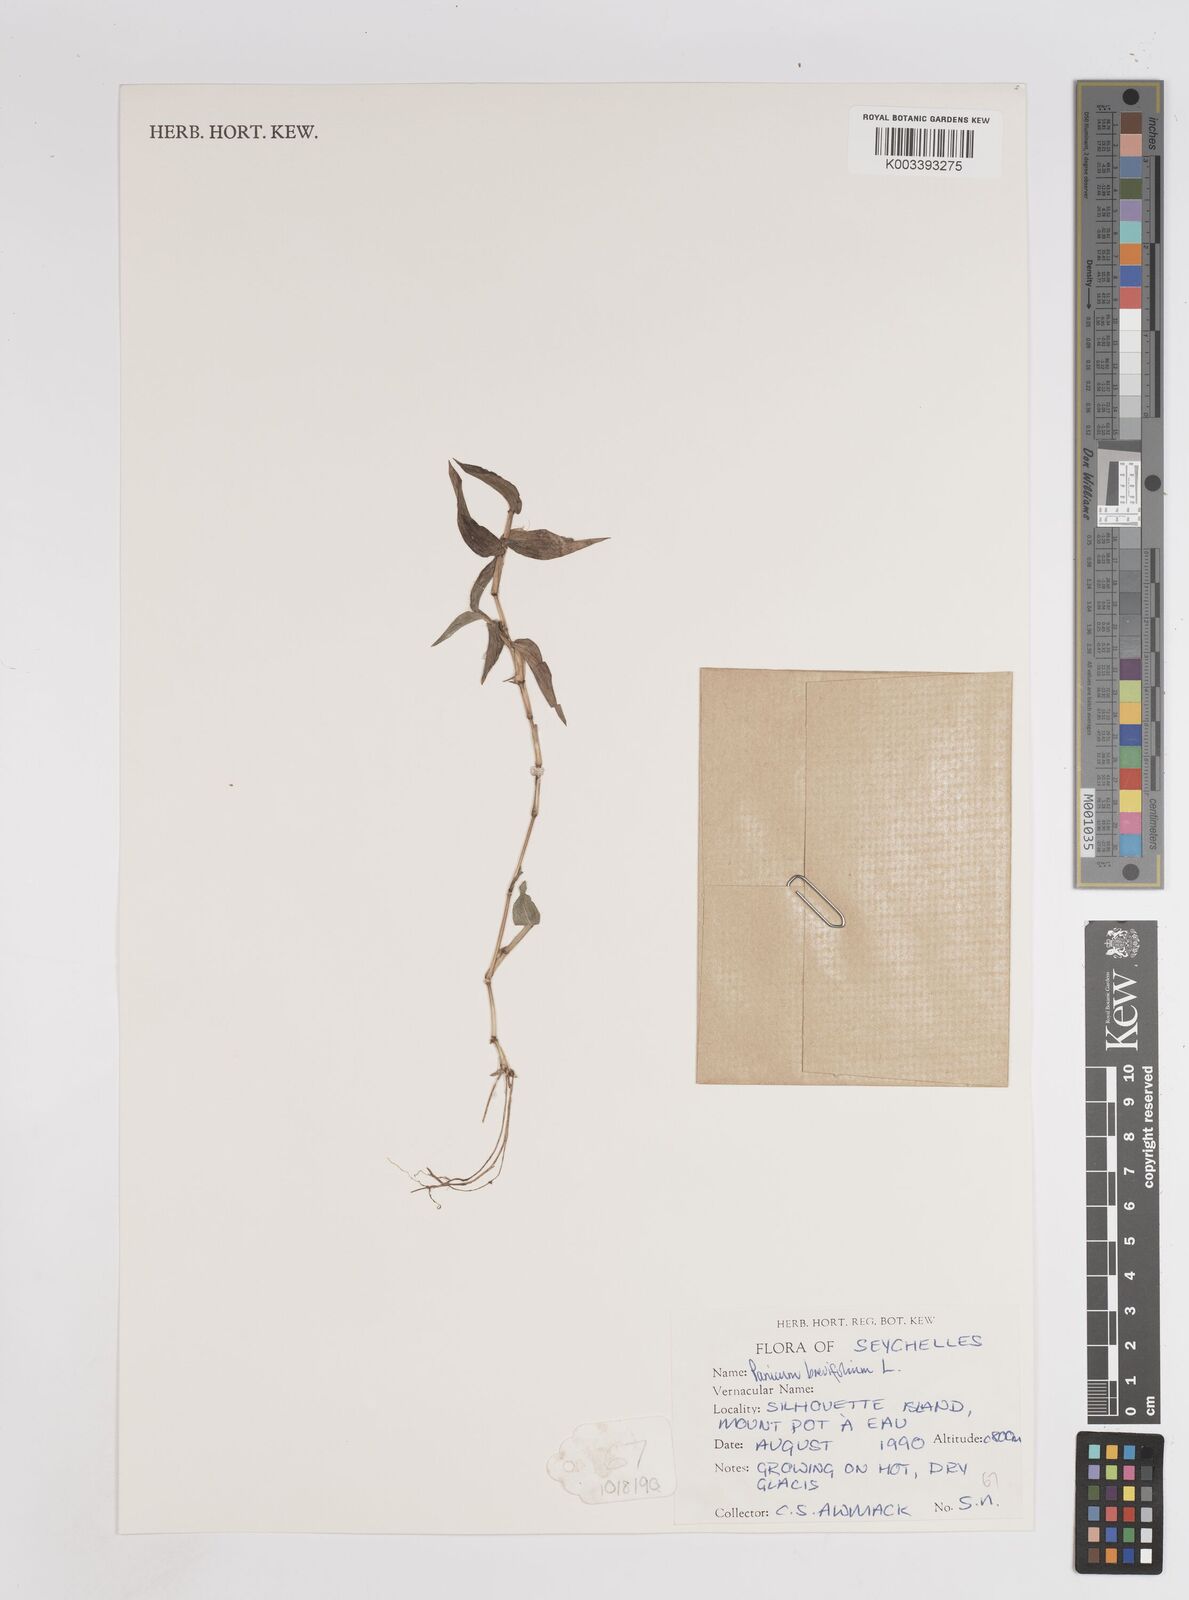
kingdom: Plantae
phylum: Tracheophyta
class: Liliopsida
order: Poales
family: Poaceae
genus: Panicum
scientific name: Panicum brevifolium
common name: Shortleaf panic grass
